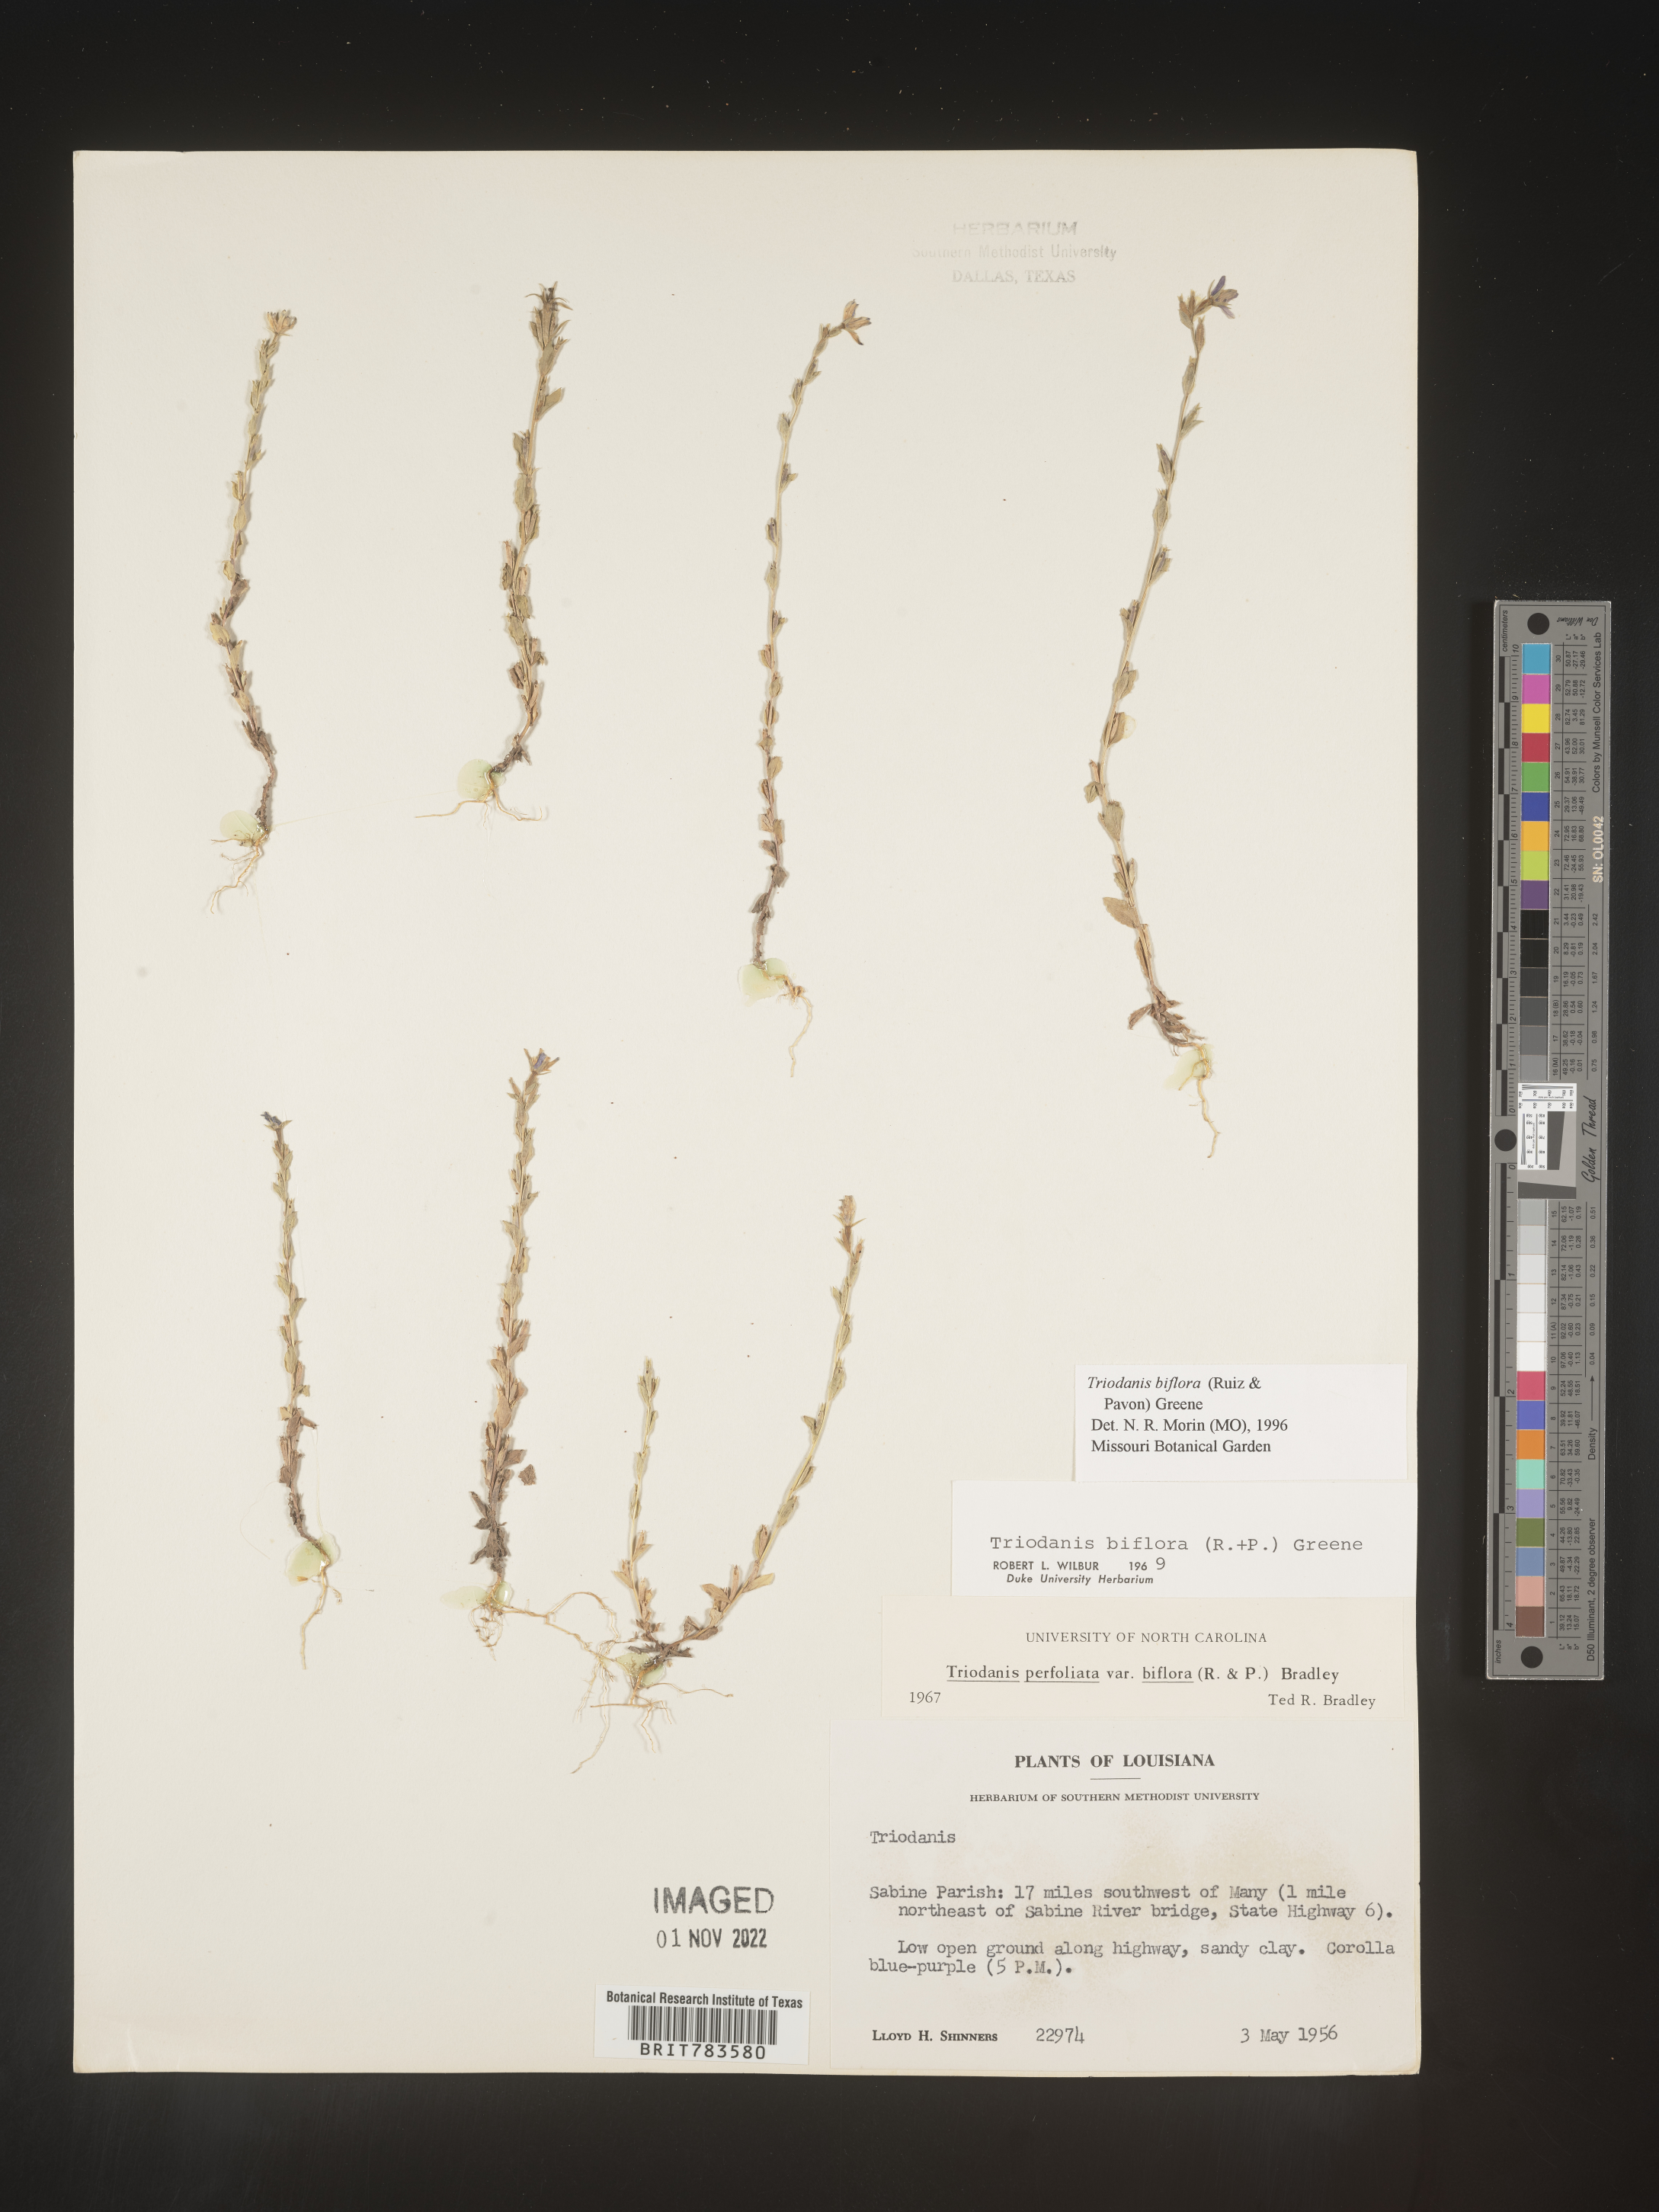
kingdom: Plantae
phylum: Tracheophyta
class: Magnoliopsida
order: Asterales
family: Campanulaceae
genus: Triodanis
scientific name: Triodanis perfoliata
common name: Clasping venus' looking-glass
